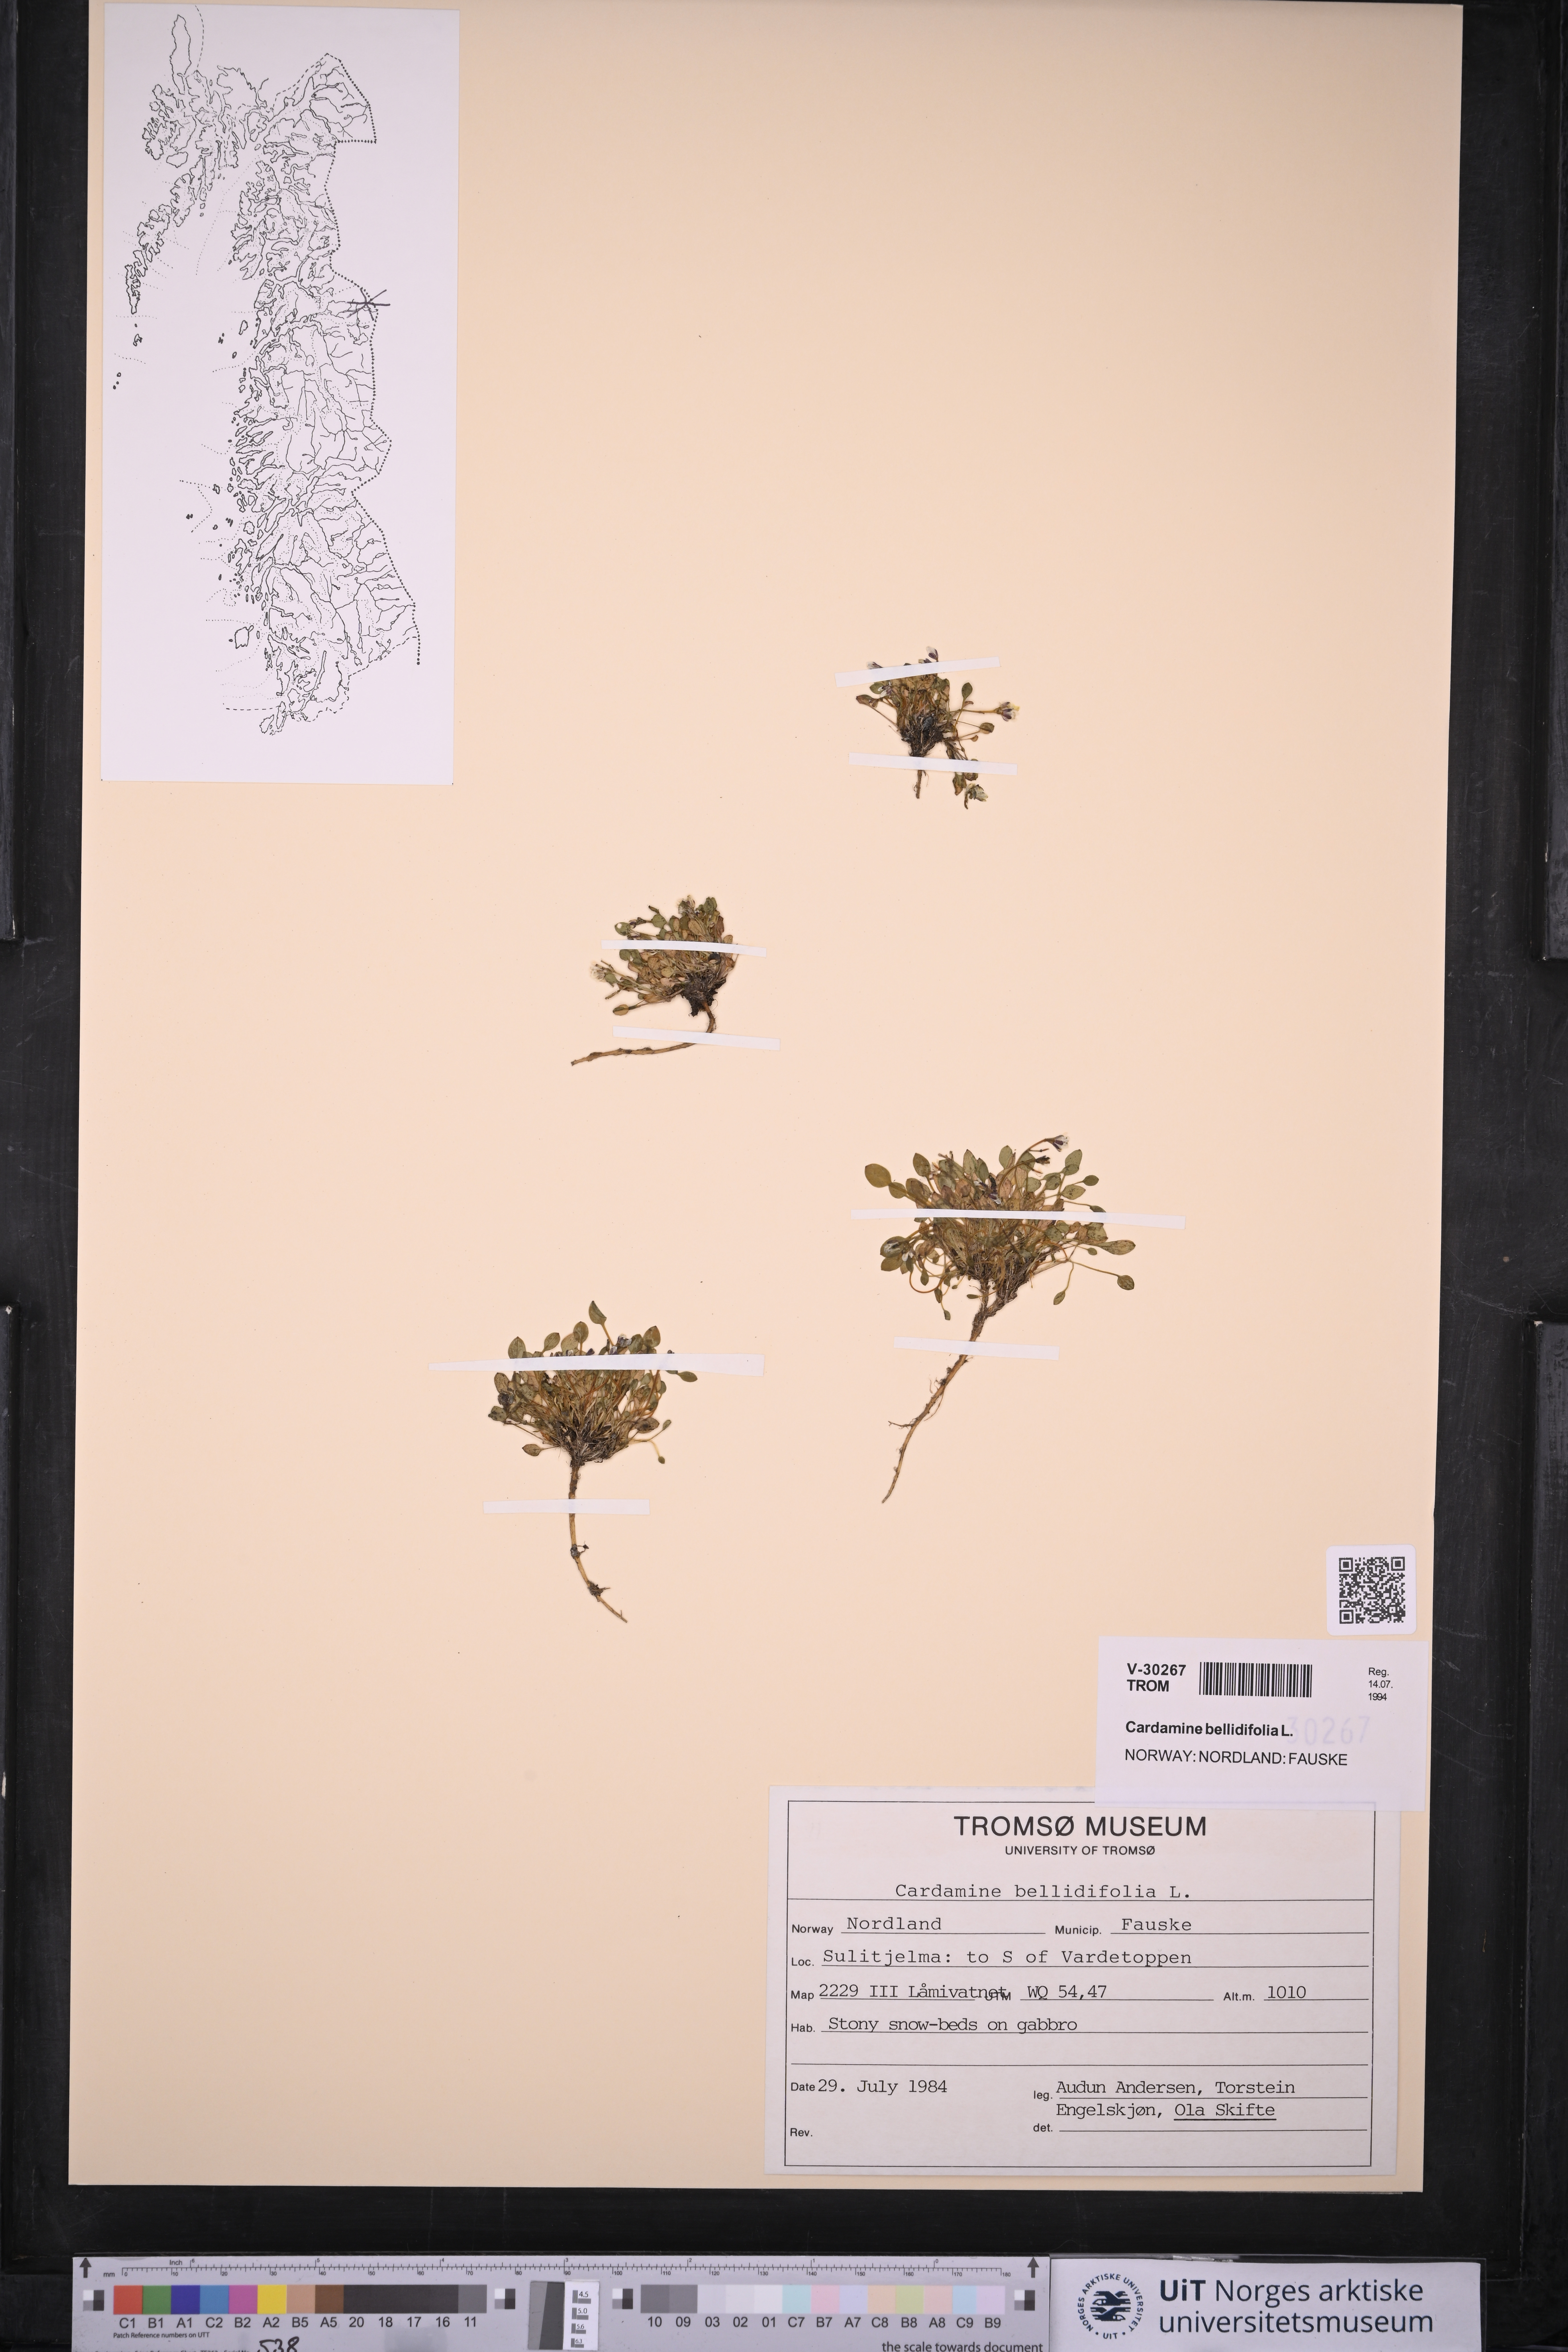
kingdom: Plantae
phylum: Tracheophyta
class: Magnoliopsida
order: Brassicales
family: Brassicaceae
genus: Cardamine
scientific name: Cardamine bellidifolia
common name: Alpine bittercress
